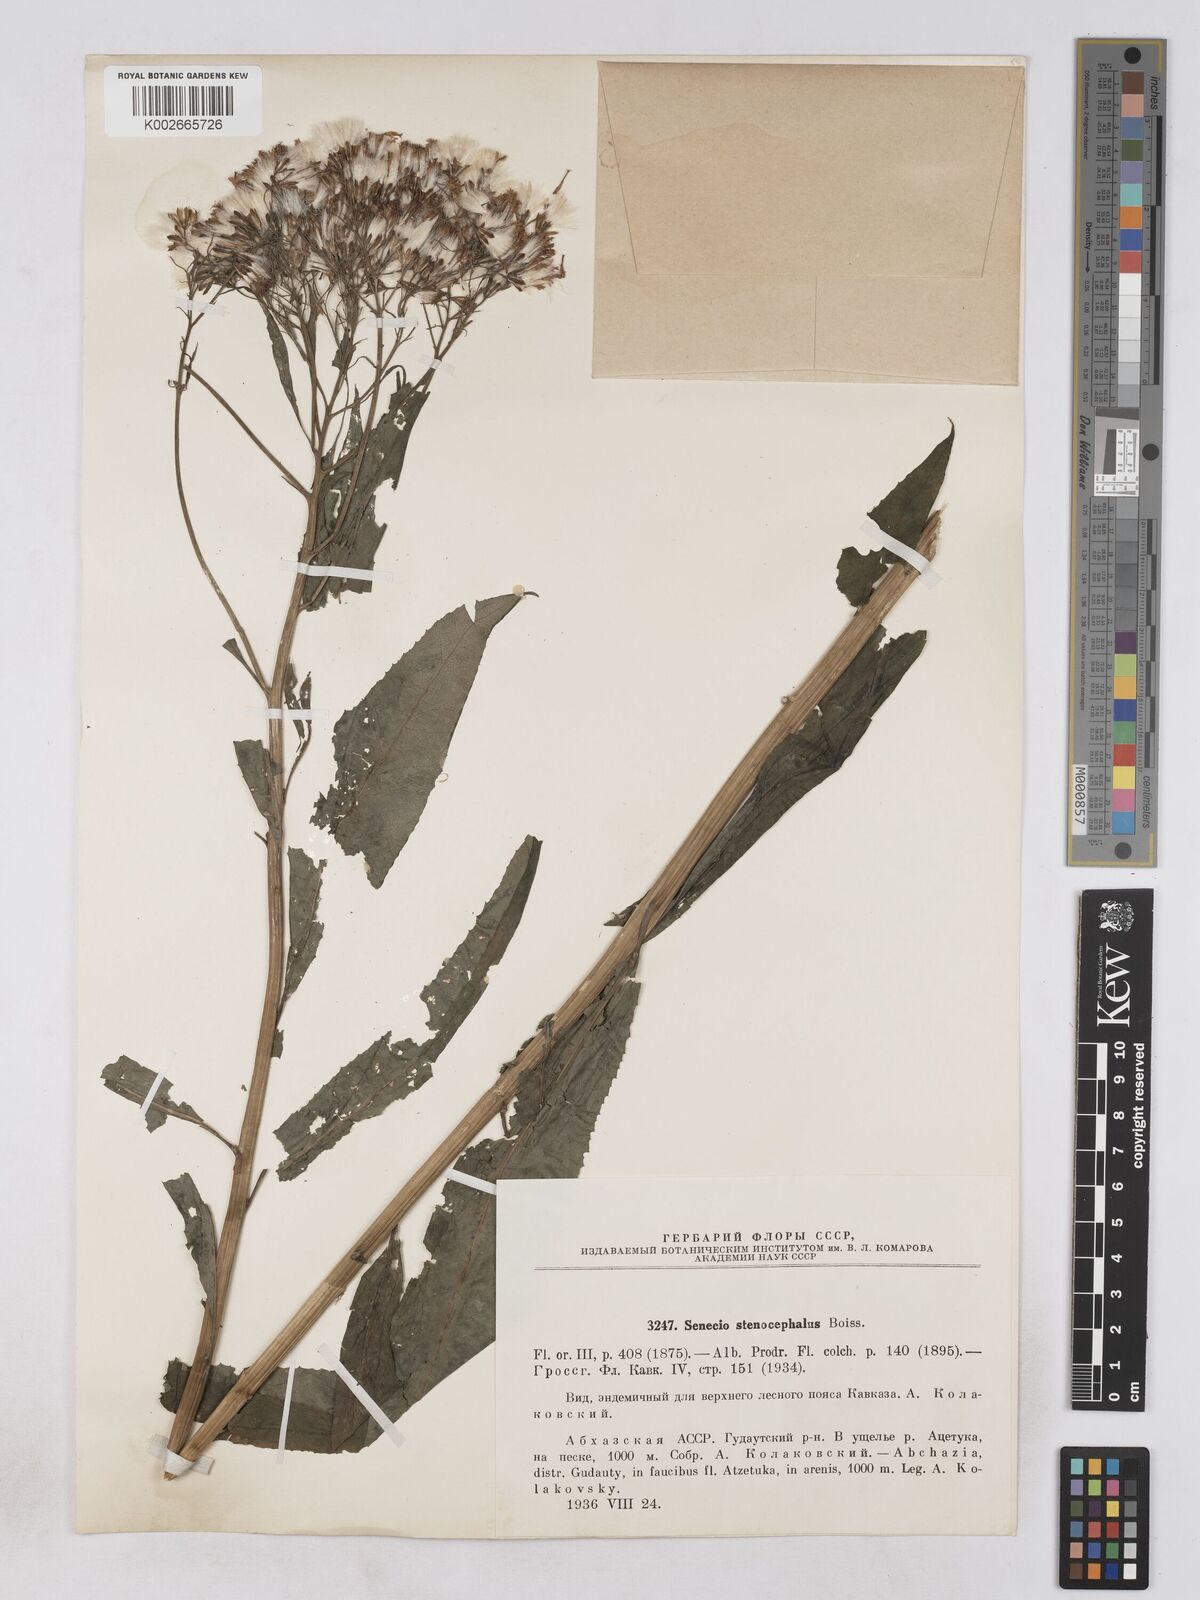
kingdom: Plantae
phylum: Tracheophyta
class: Magnoliopsida
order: Asterales
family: Asteraceae
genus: Pojarkovia
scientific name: Pojarkovia pojarkovae
